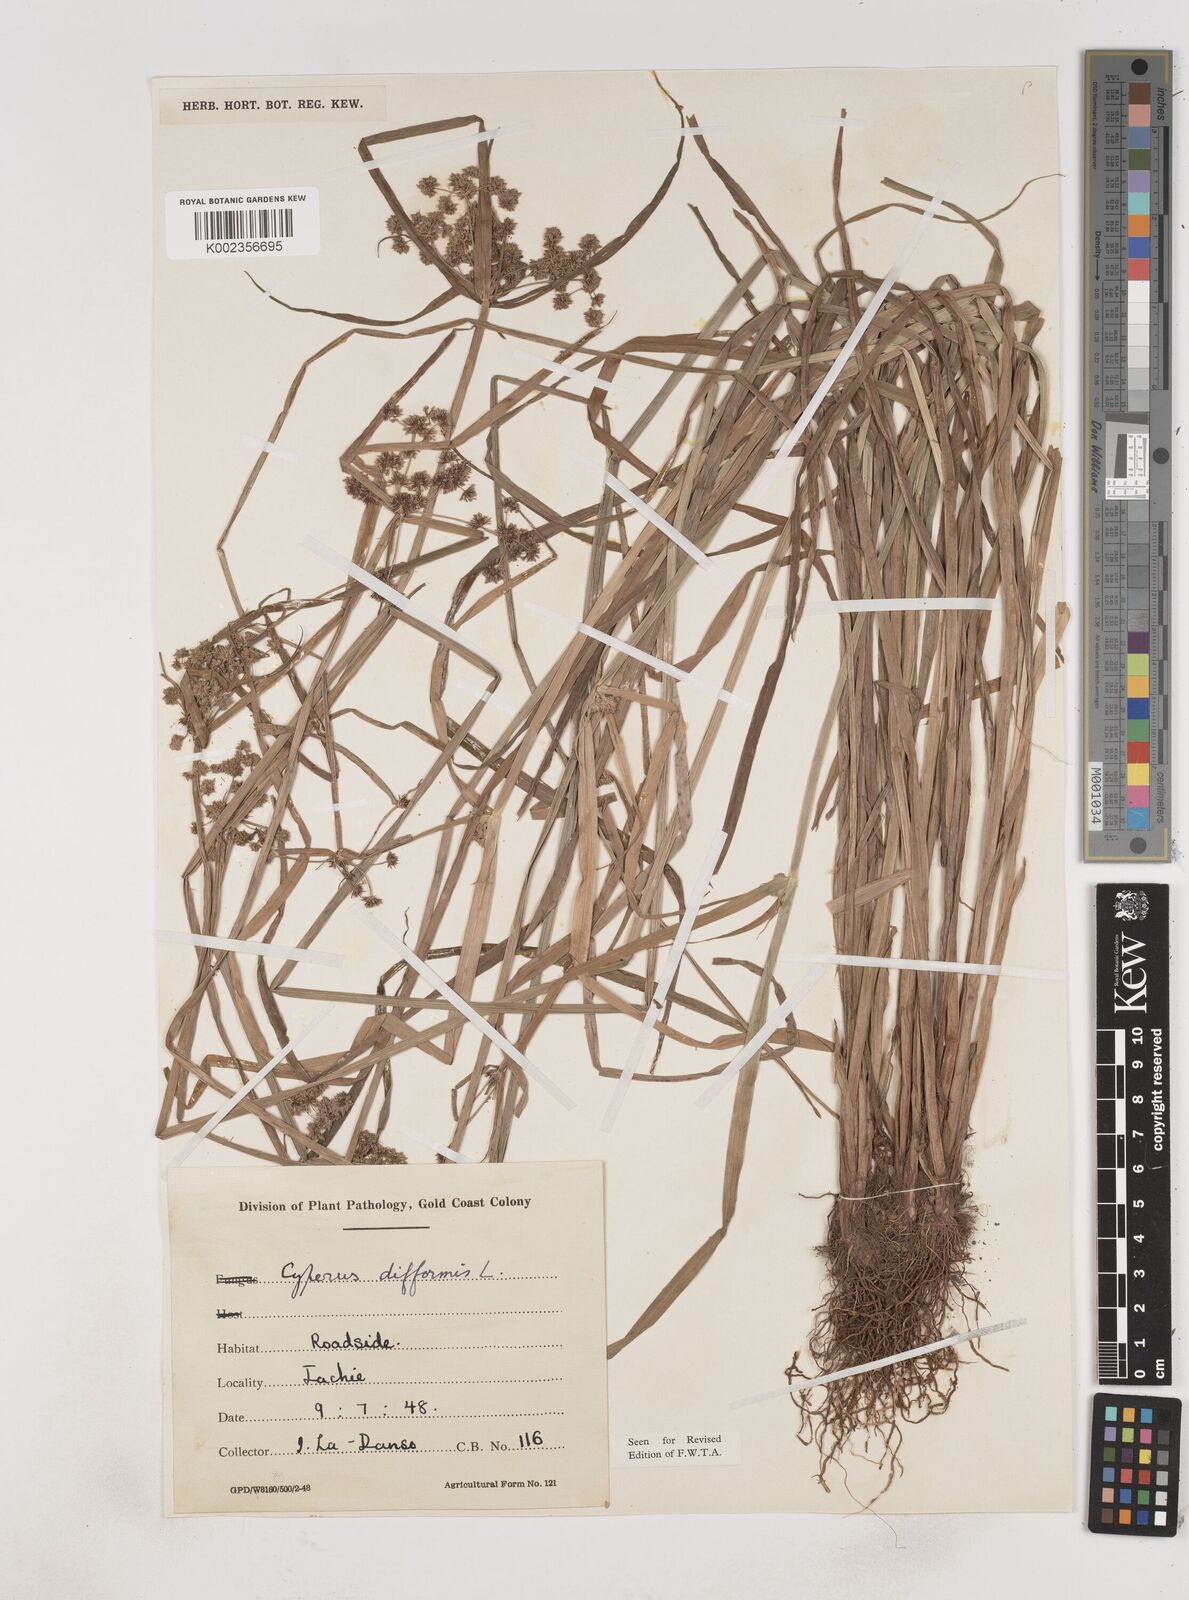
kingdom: Plantae
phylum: Tracheophyta
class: Liliopsida
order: Poales
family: Cyperaceae
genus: Cyperus
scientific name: Cyperus difformis
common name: Variable flatsedge
